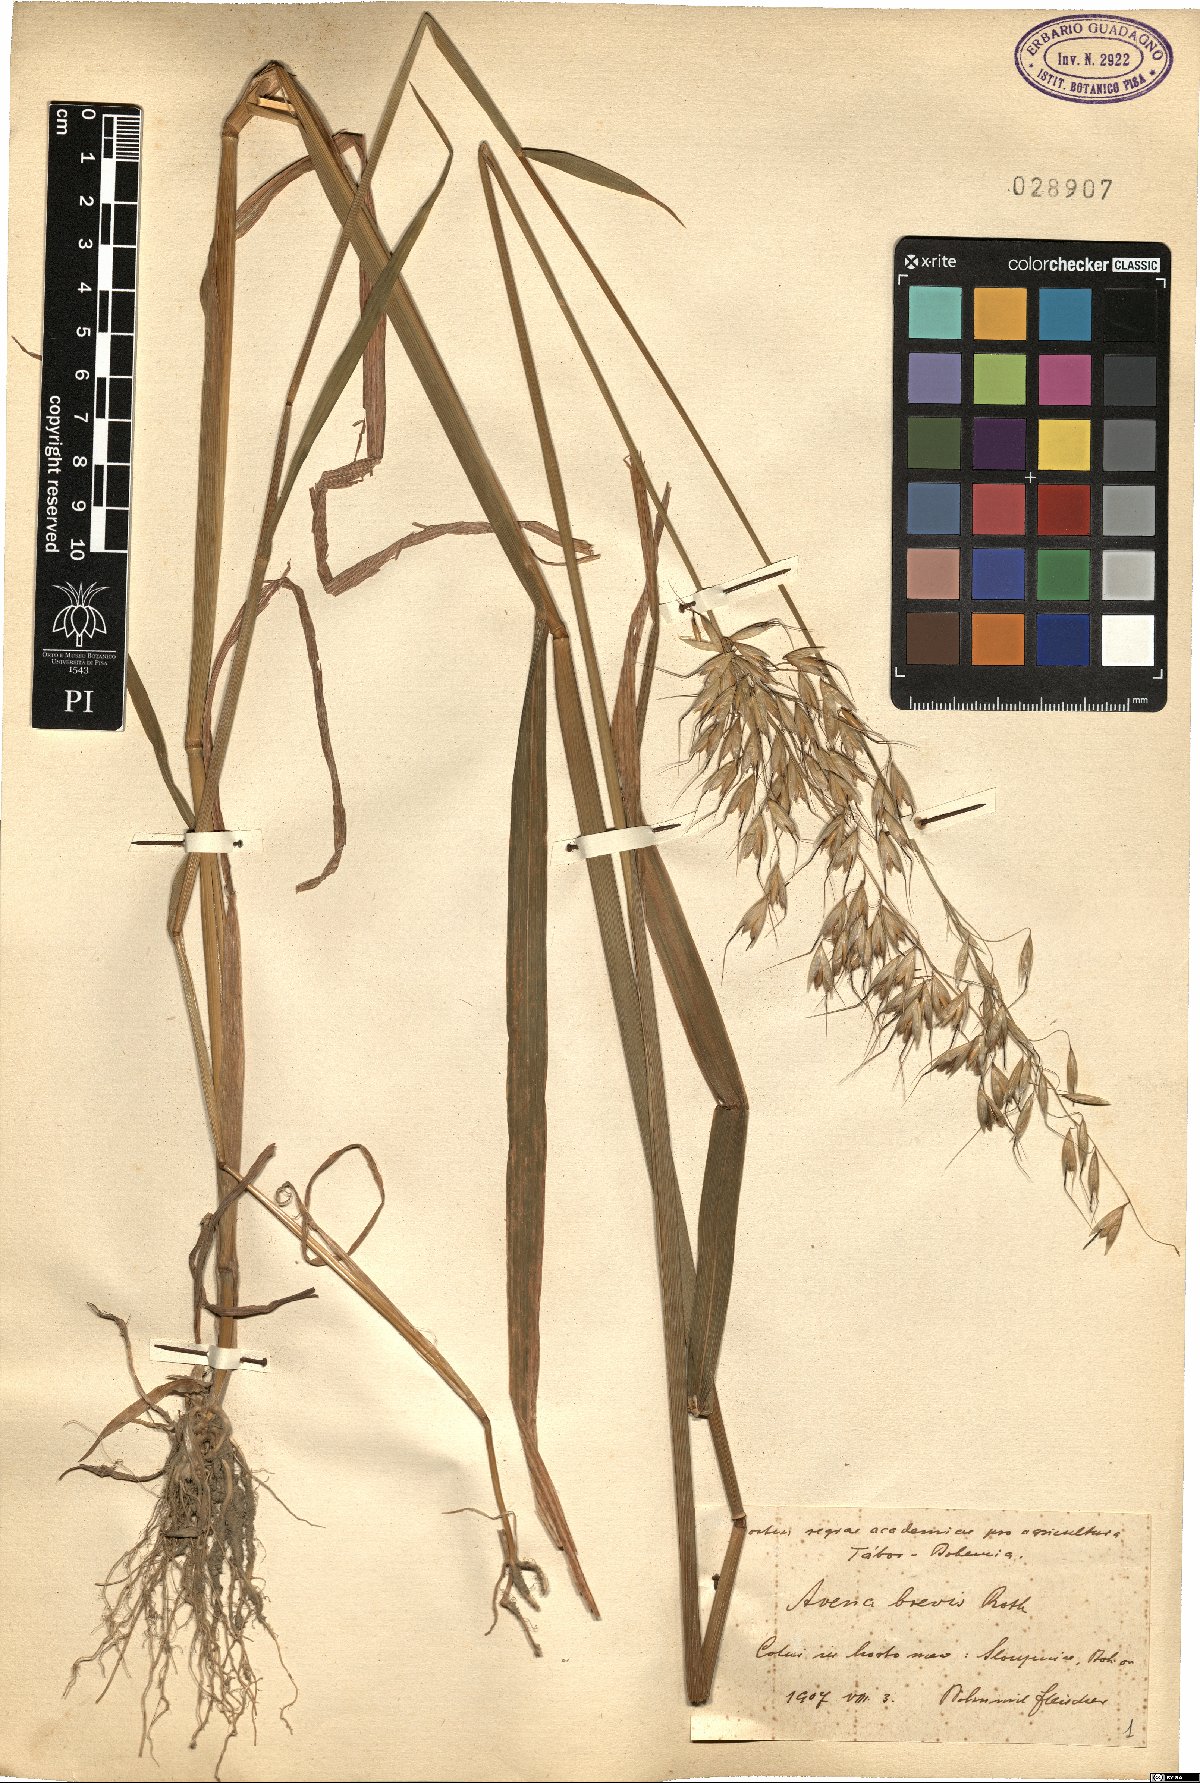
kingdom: Plantae
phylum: Tracheophyta
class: Liliopsida
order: Poales
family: Poaceae
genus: Avena
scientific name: Avena brevis
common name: Short oat
